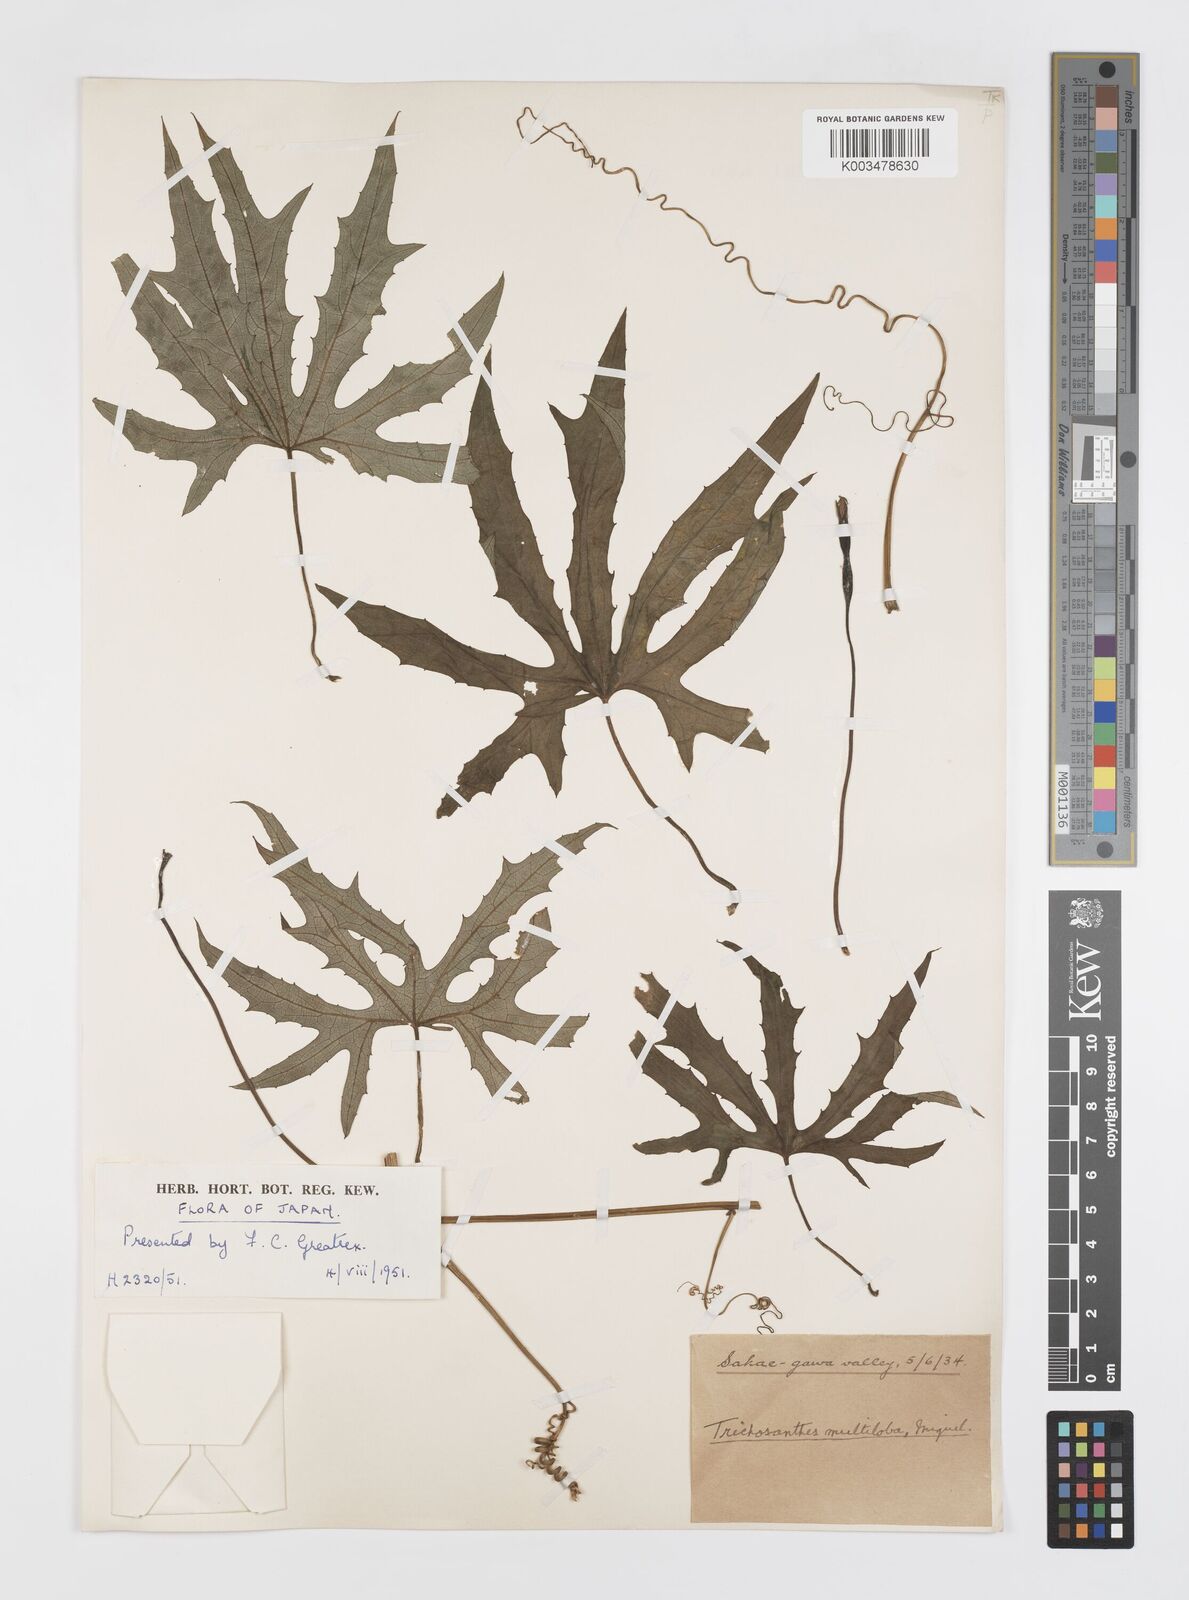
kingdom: Plantae
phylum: Tracheophyta
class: Magnoliopsida
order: Cucurbitales
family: Cucurbitaceae
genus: Trichosanthes
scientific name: Trichosanthes multiloba
